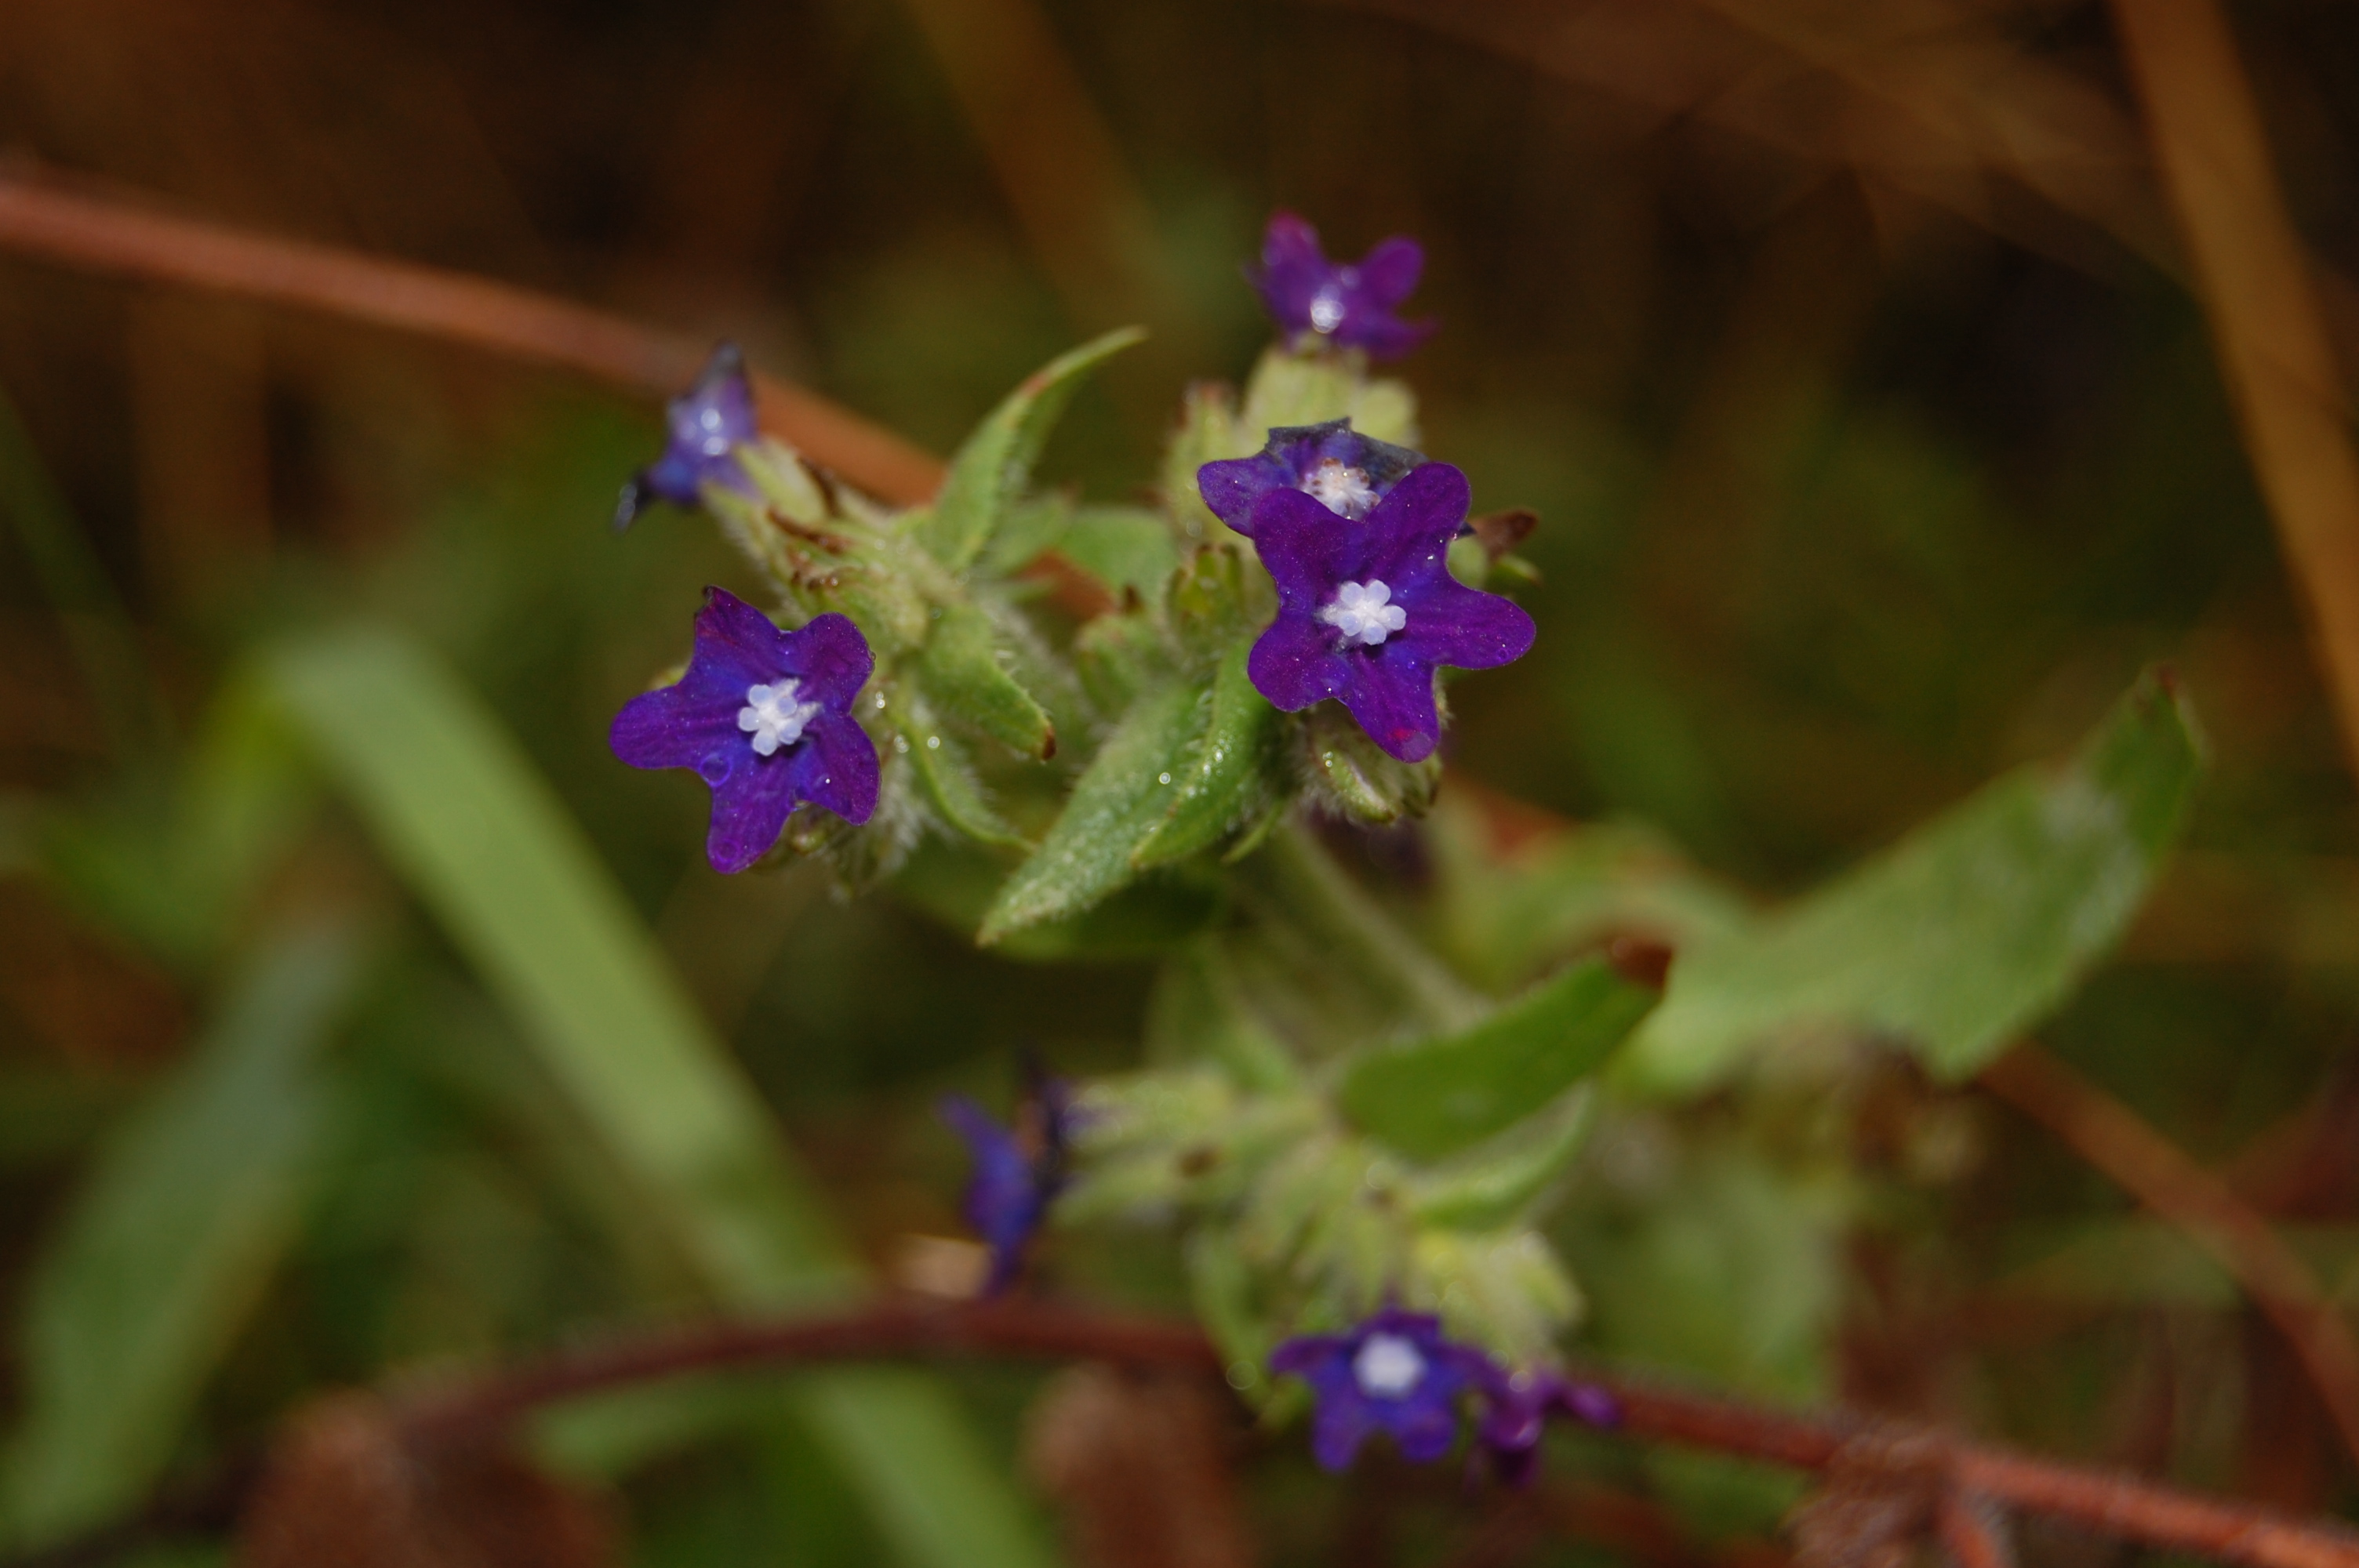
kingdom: Plantae
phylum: Tracheophyta
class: Magnoliopsida
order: Boraginales
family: Boraginaceae
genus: Anchusa
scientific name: Anchusa officinalis
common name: Alkanet
